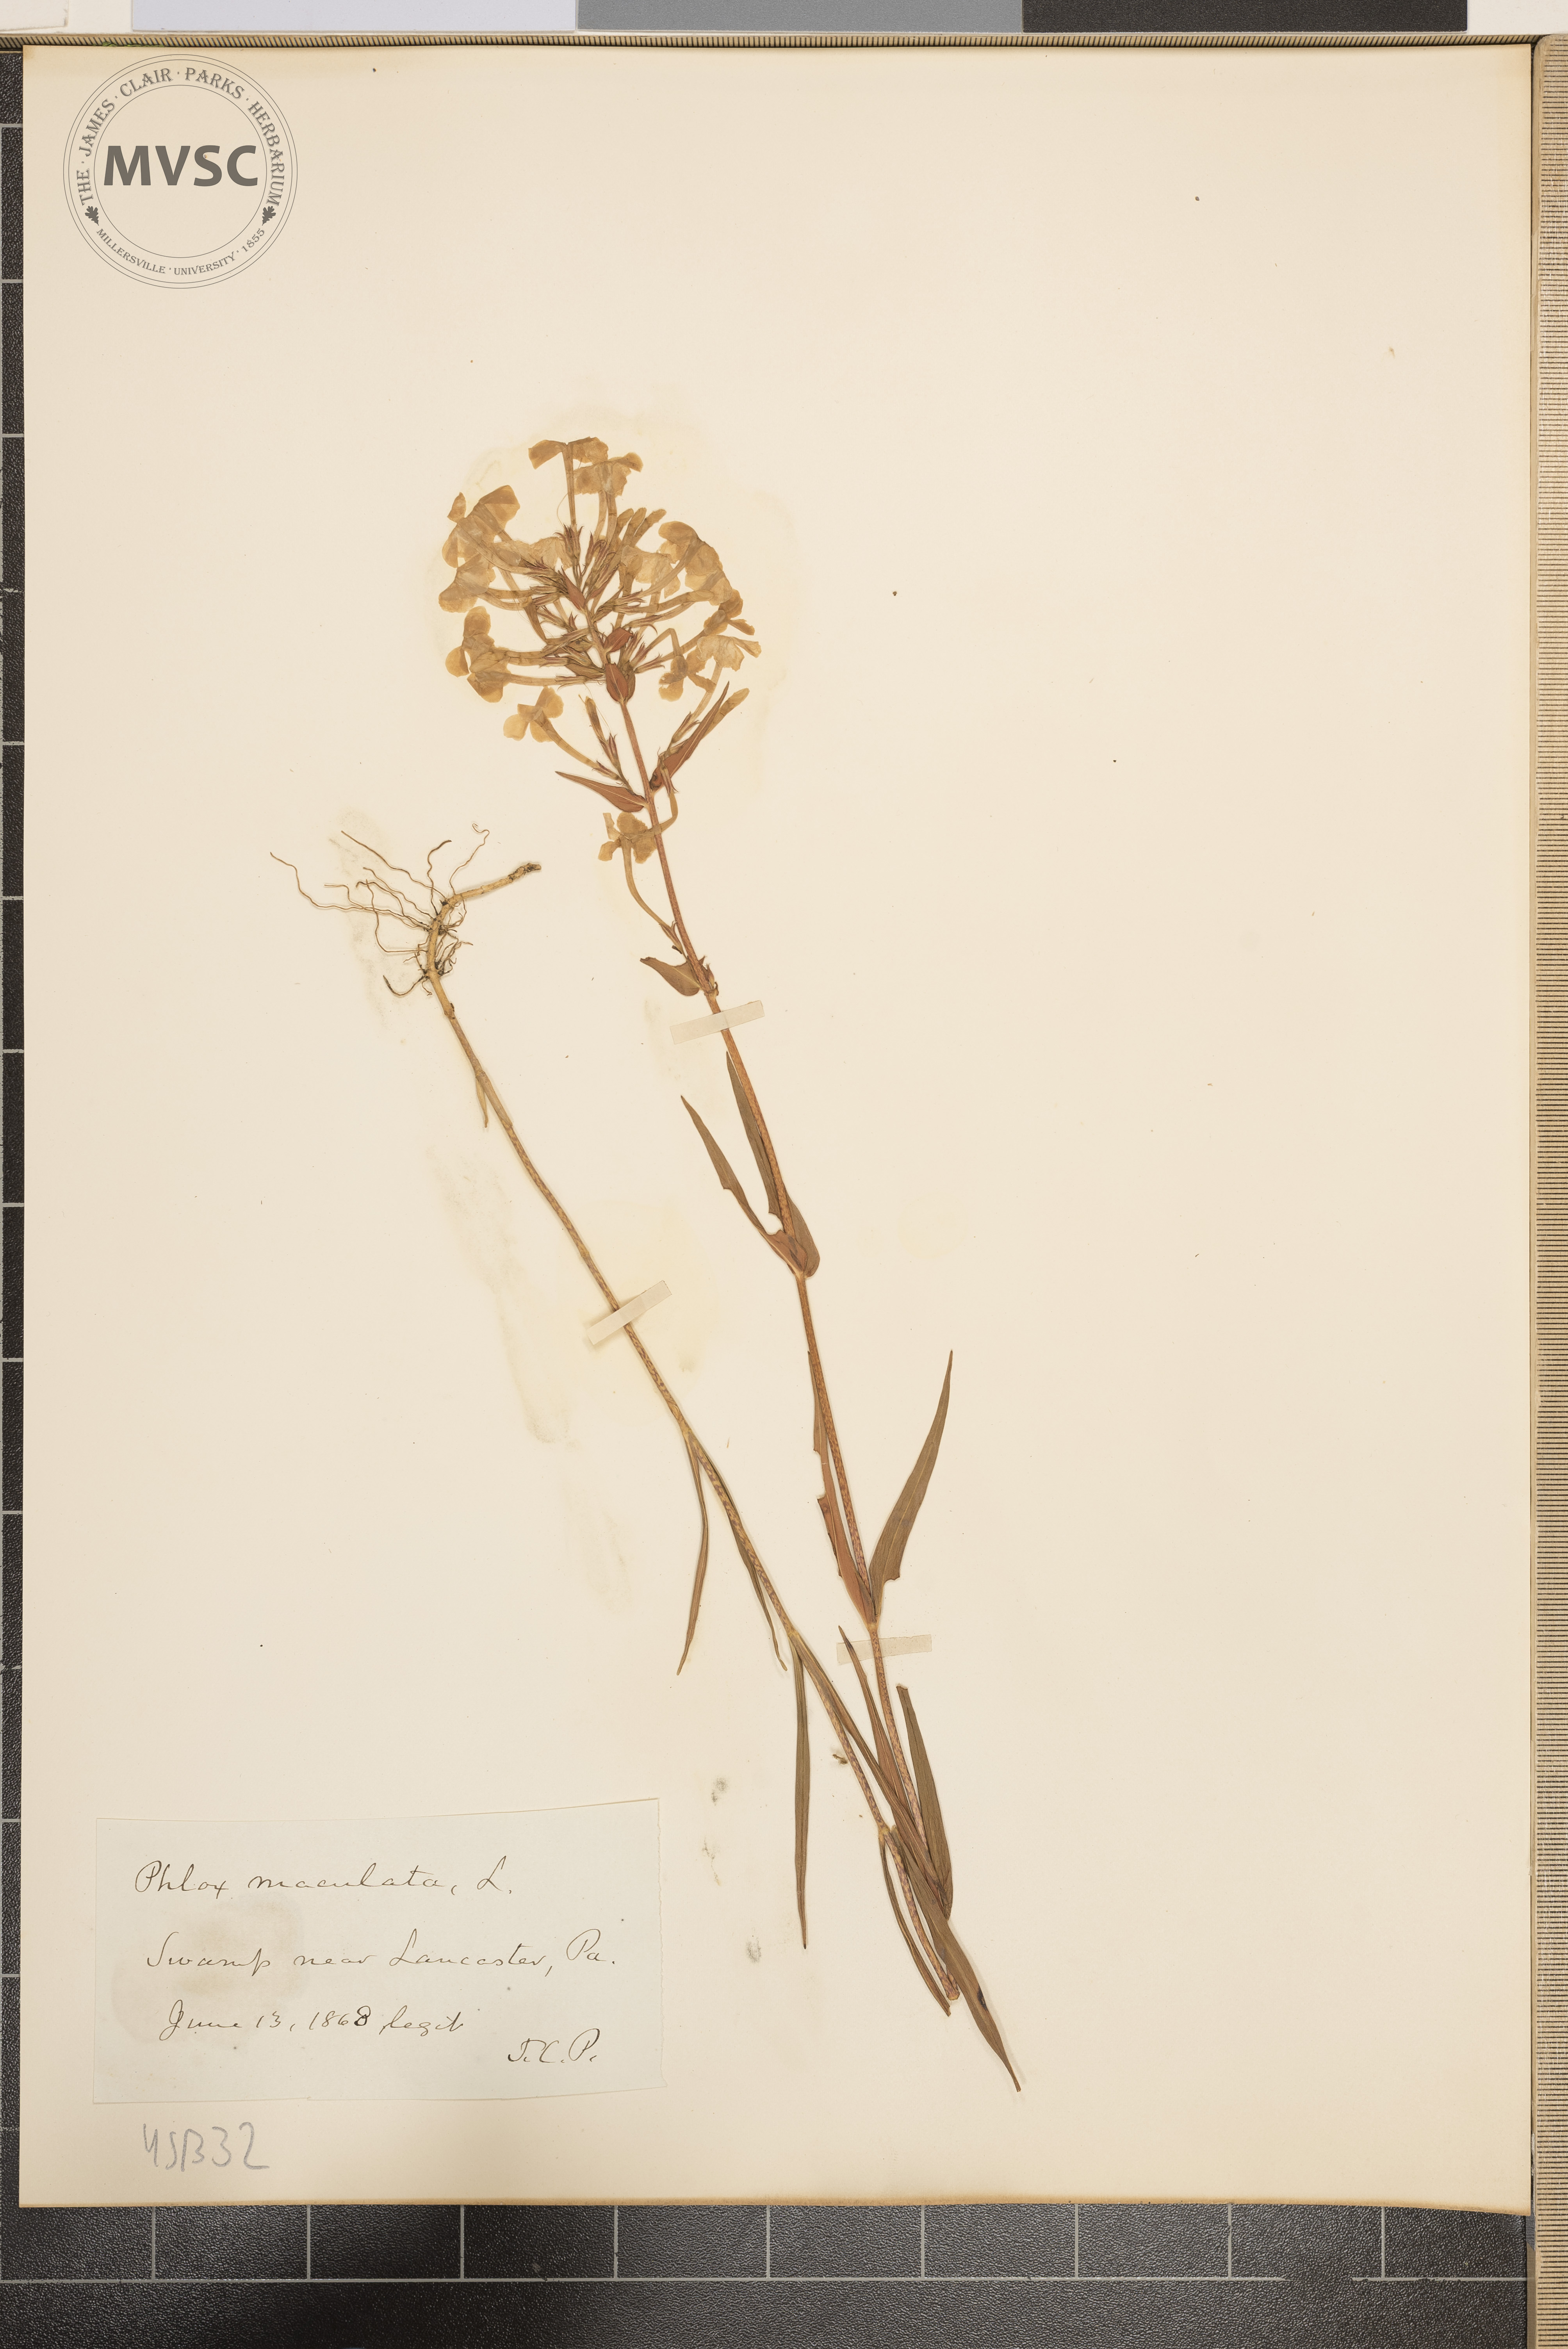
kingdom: Plantae
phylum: Tracheophyta
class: Magnoliopsida
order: Ericales
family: Polemoniaceae
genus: Phlox
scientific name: Phlox maculata
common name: Meadow phlox
